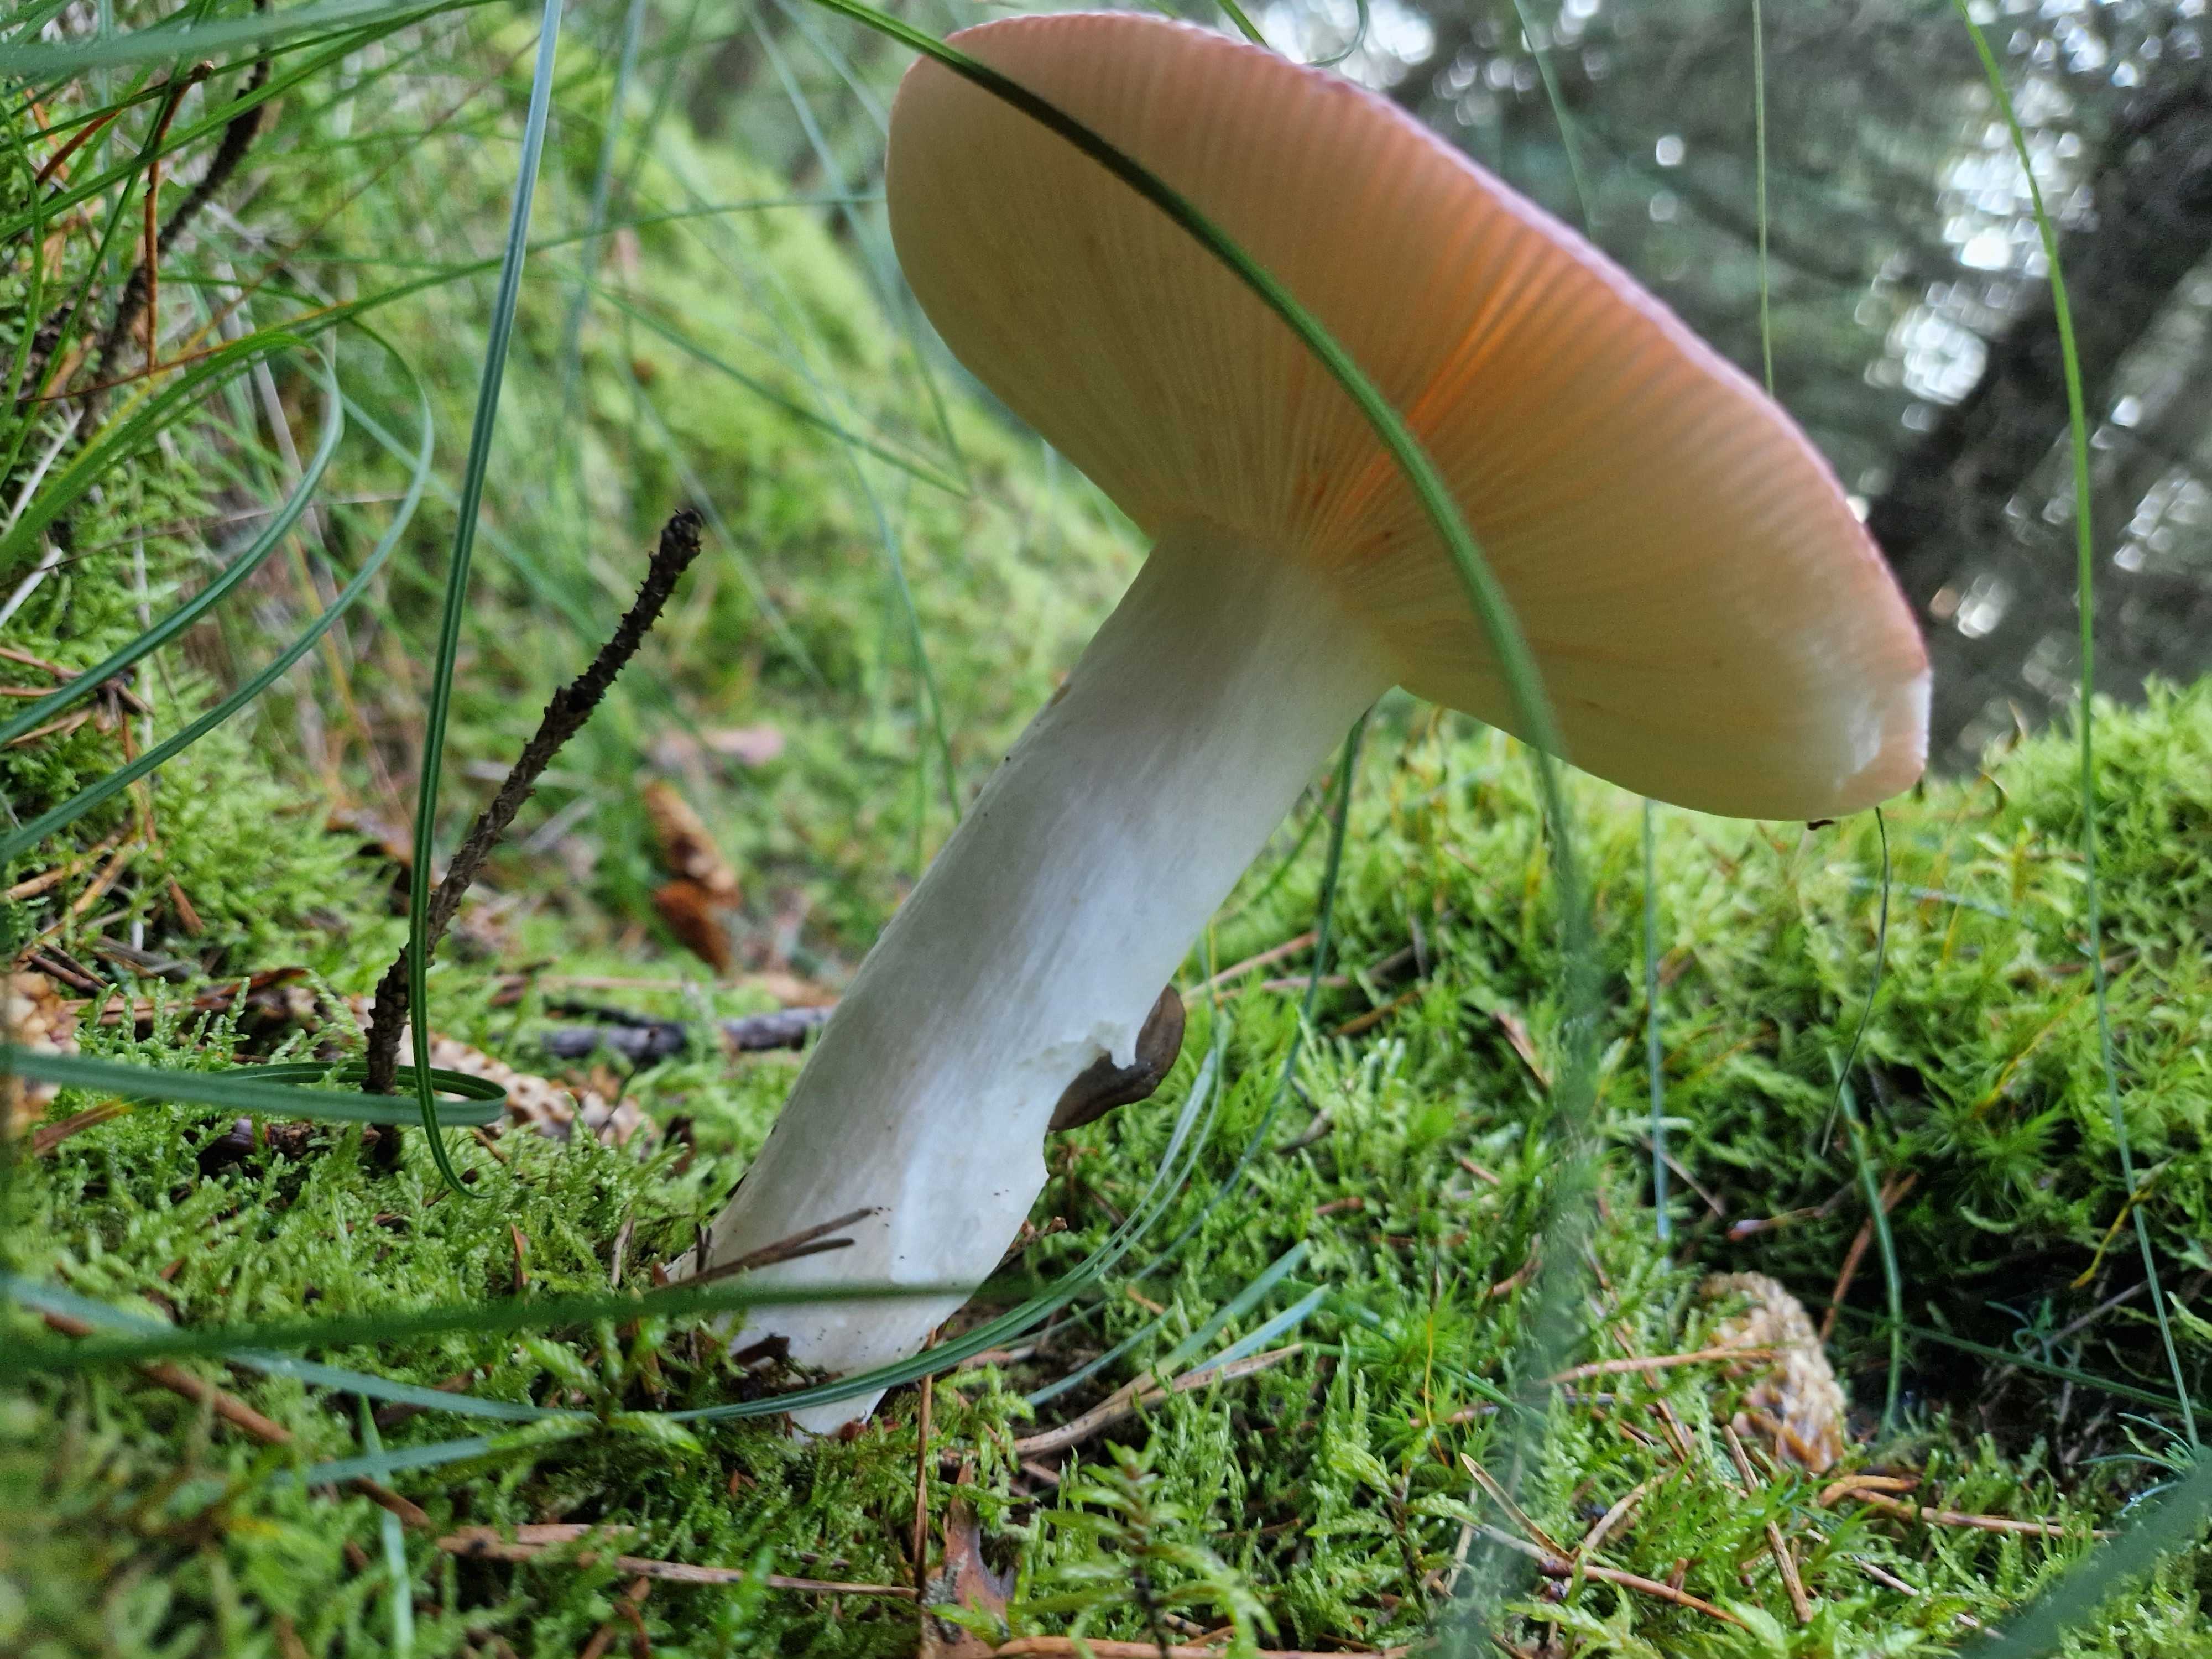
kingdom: Fungi
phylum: Basidiomycota
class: Agaricomycetes
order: Russulales
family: Russulaceae
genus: Russula
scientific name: Russula
